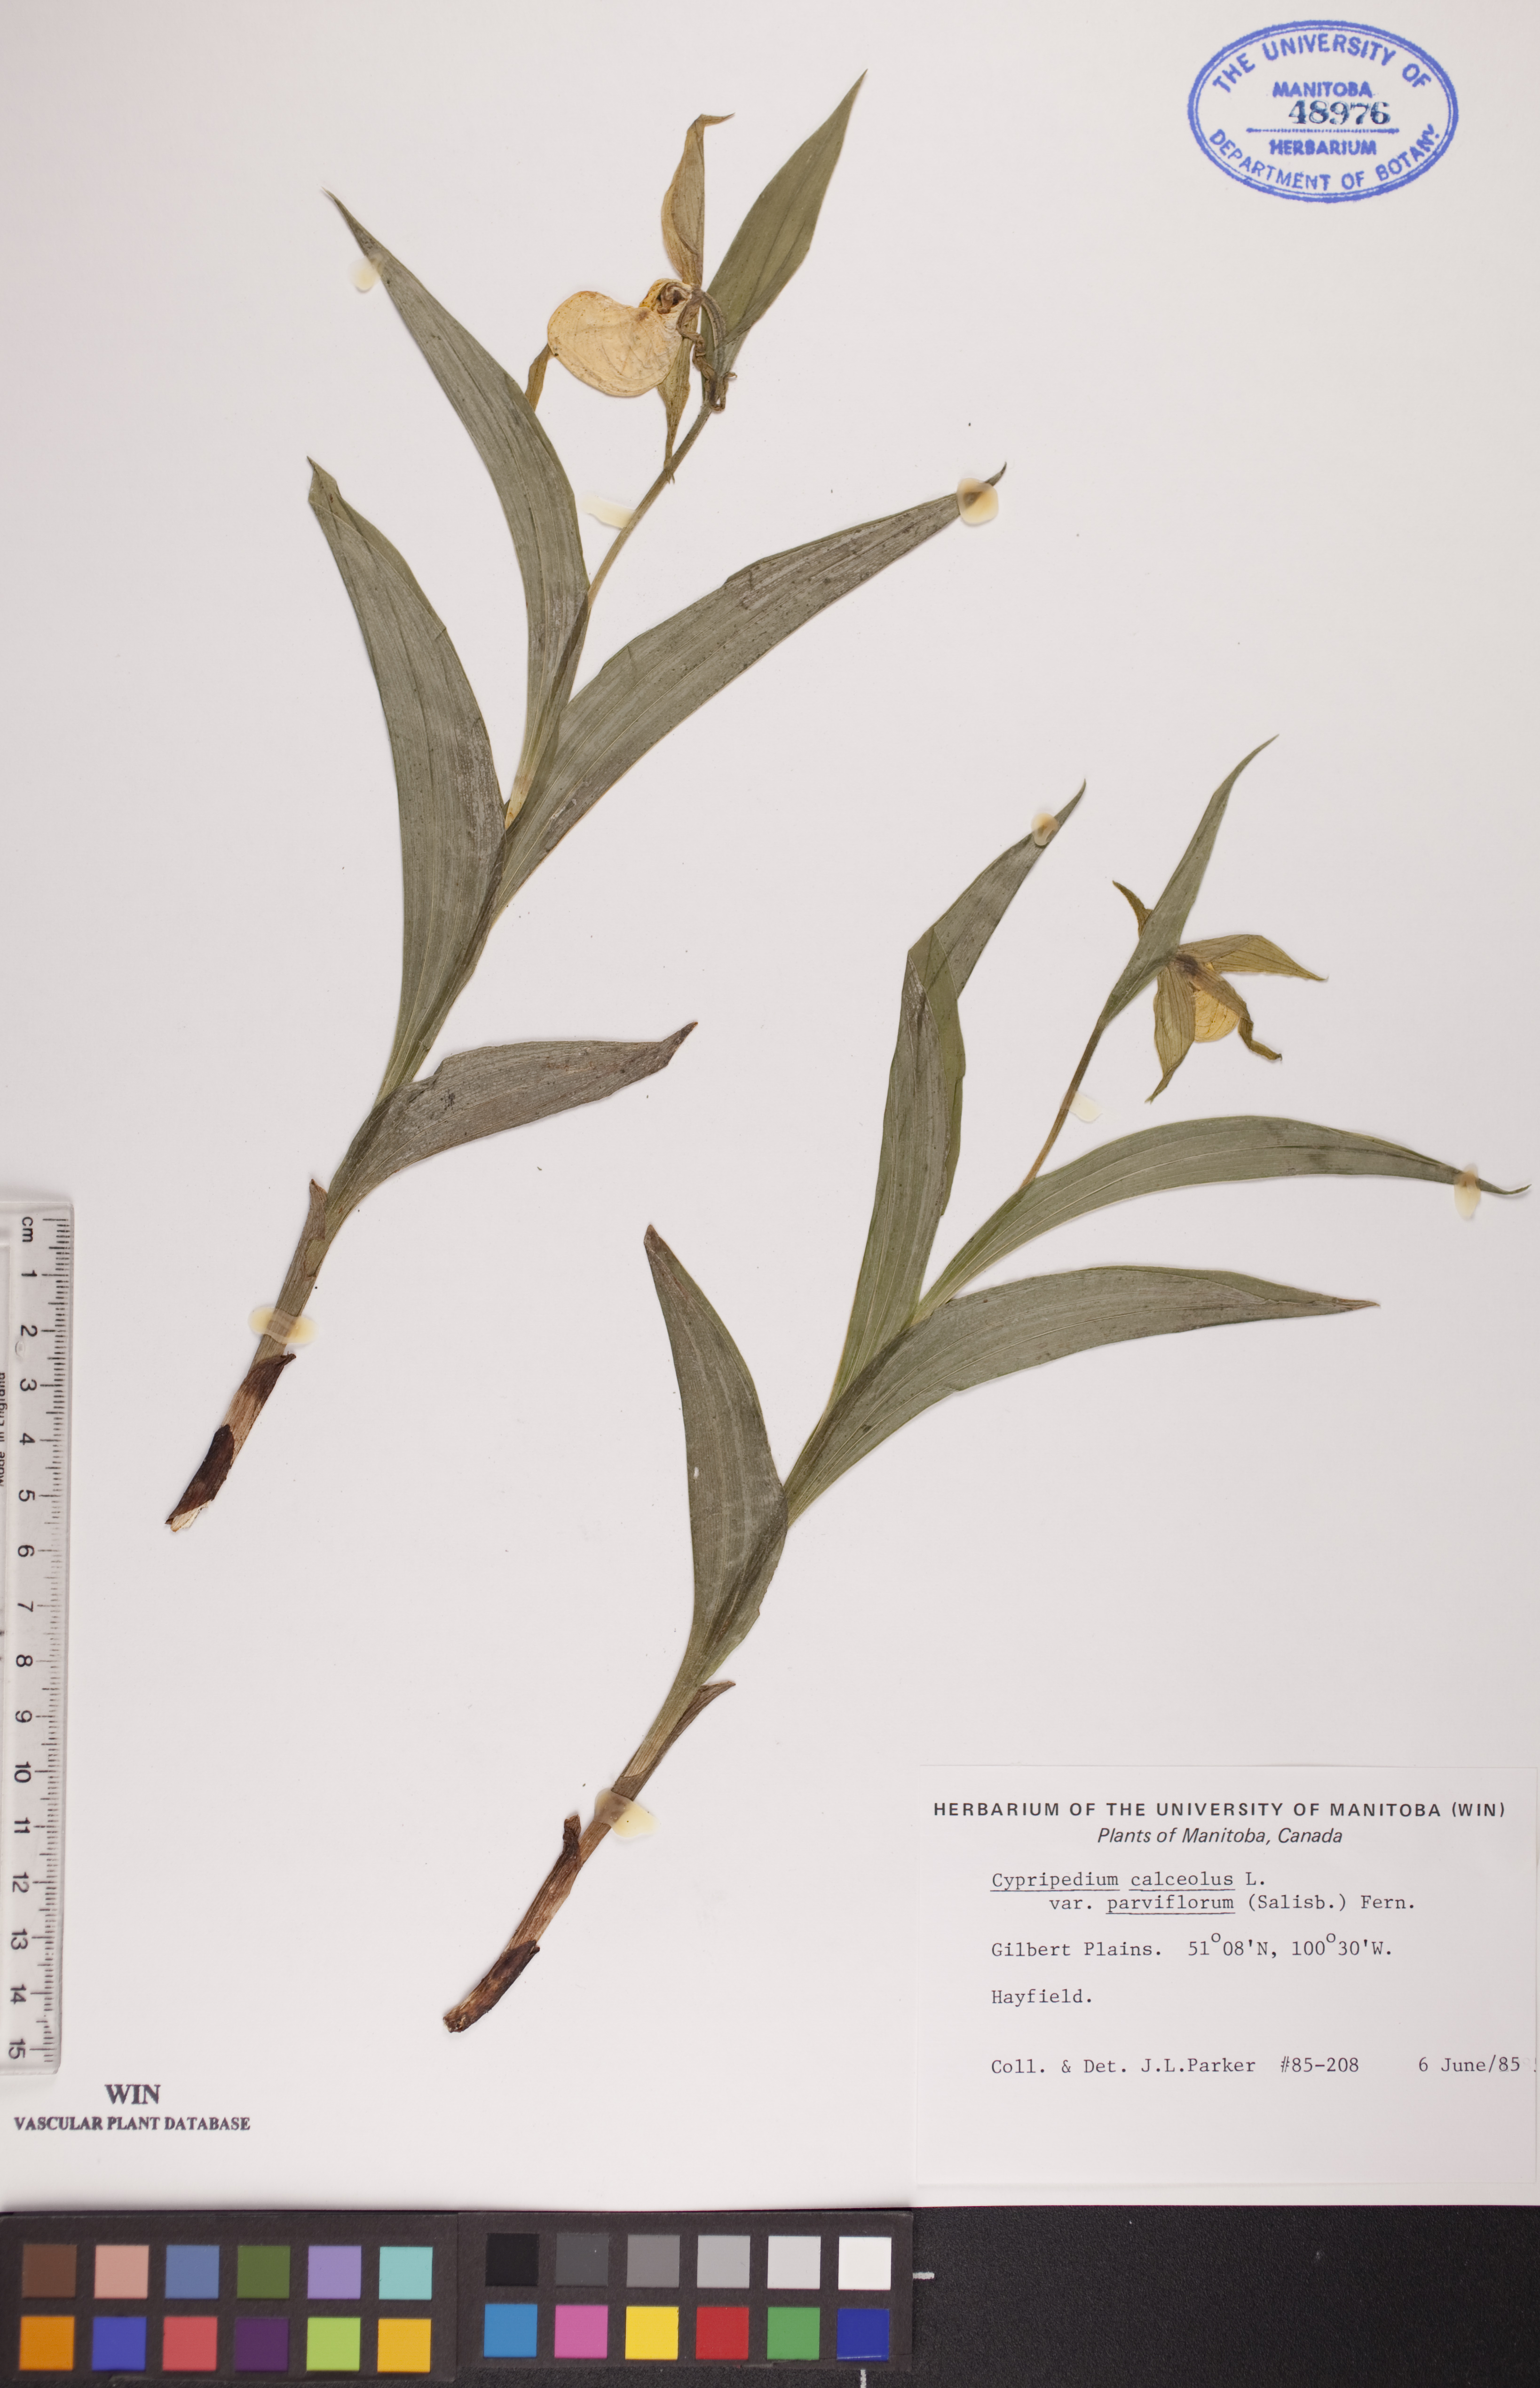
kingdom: Plantae
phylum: Tracheophyta
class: Liliopsida
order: Asparagales
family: Orchidaceae
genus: Cypripedium
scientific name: Cypripedium parviflorum
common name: American yellow lady's-slipper
